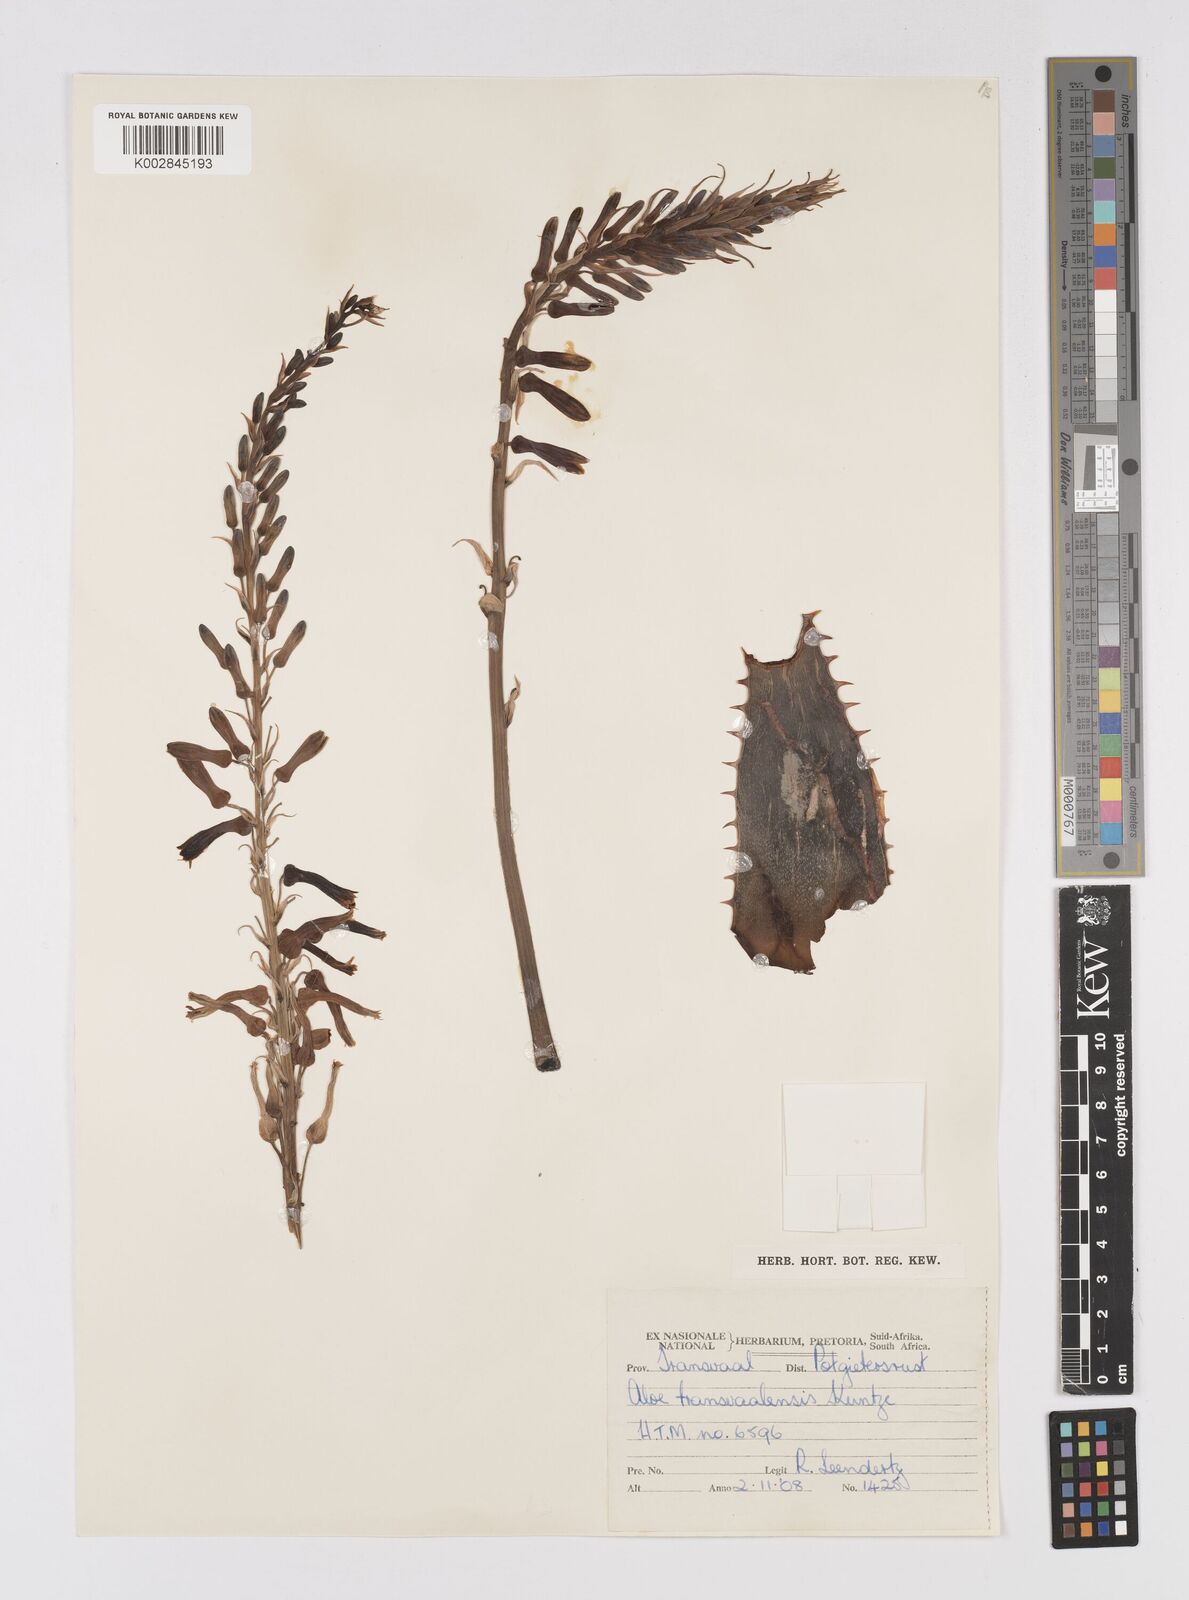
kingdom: Plantae
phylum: Tracheophyta
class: Liliopsida
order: Asparagales
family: Asphodelaceae
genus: Aloe
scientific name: Aloe transvaalensis
